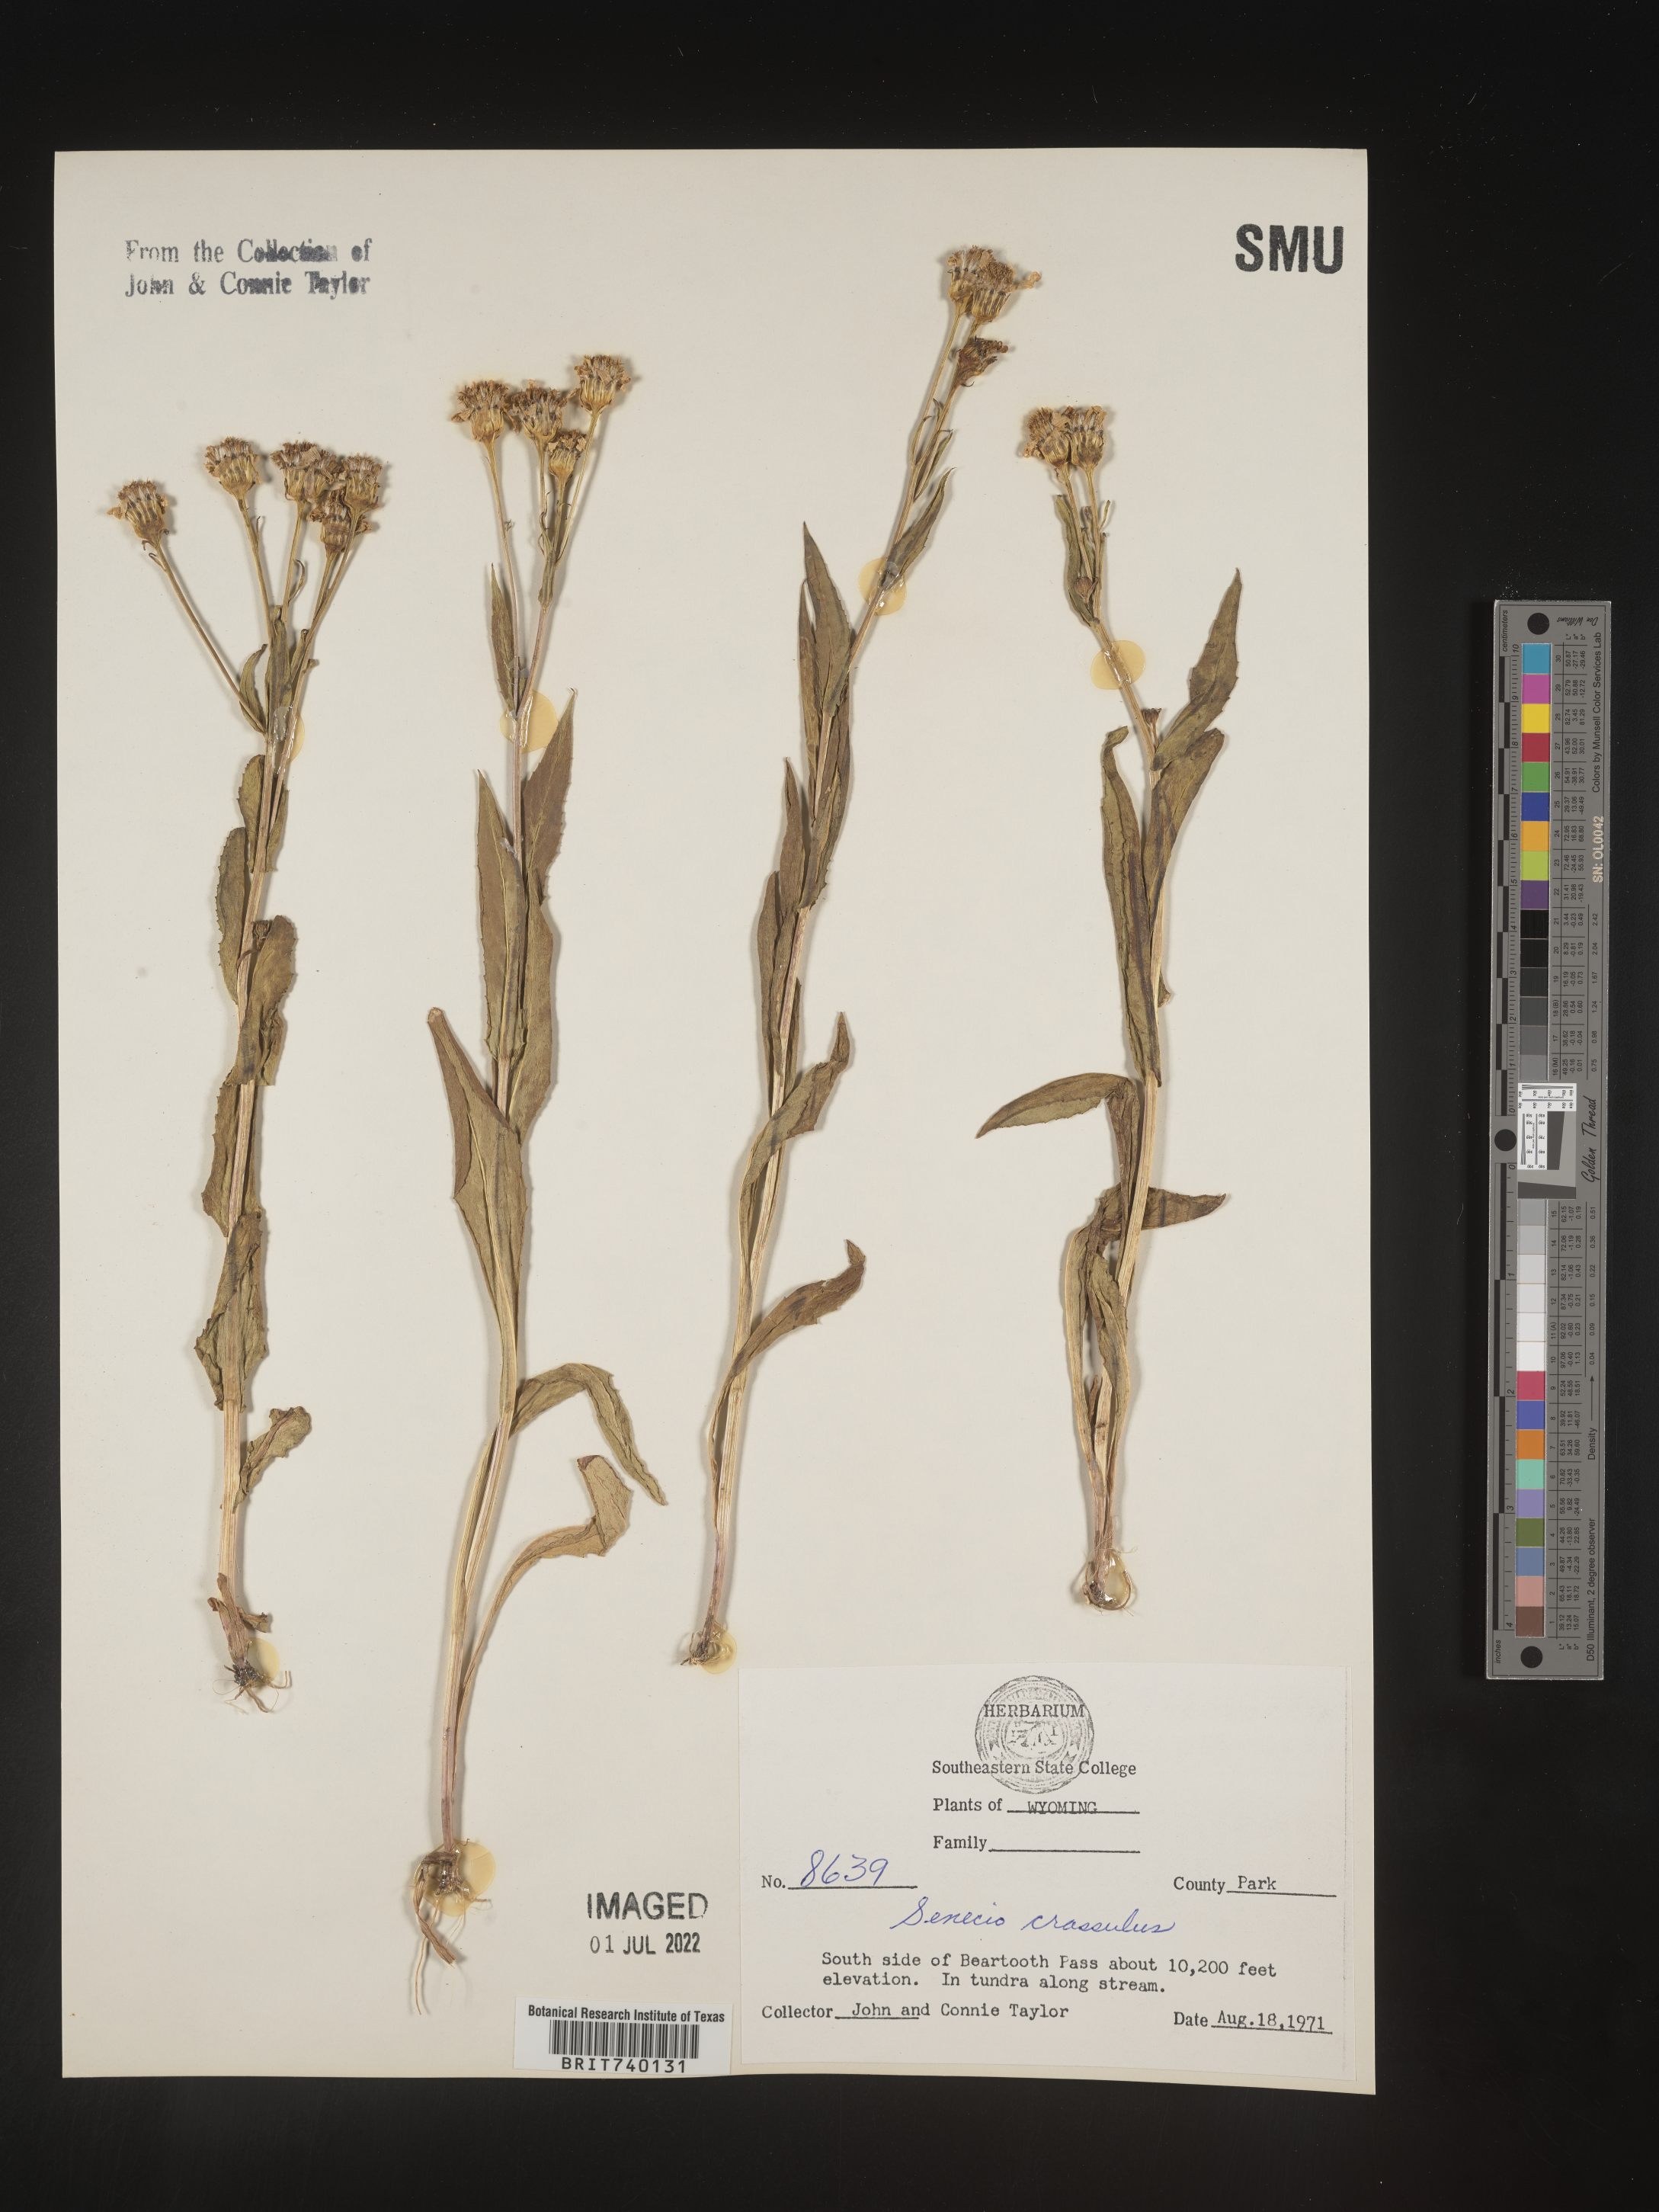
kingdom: Plantae
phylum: Tracheophyta
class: Magnoliopsida
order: Asterales
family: Asteraceae
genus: Senecio
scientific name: Senecio crassulus
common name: Mountain-meadow butterweed
